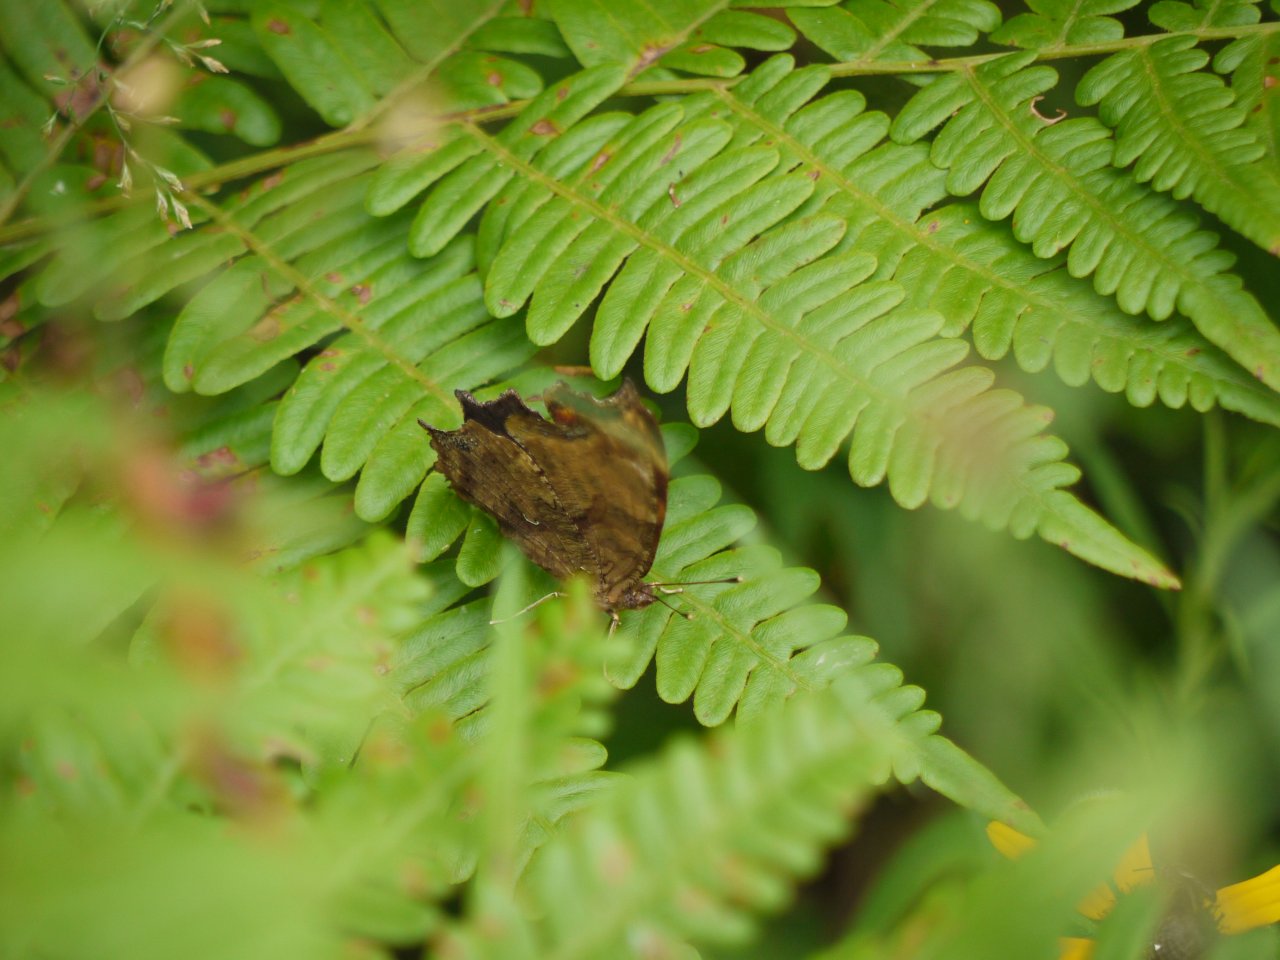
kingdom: Animalia
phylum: Arthropoda
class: Insecta
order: Lepidoptera
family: Nymphalidae
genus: Polygonia
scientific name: Polygonia comma
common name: Eastern Comma
